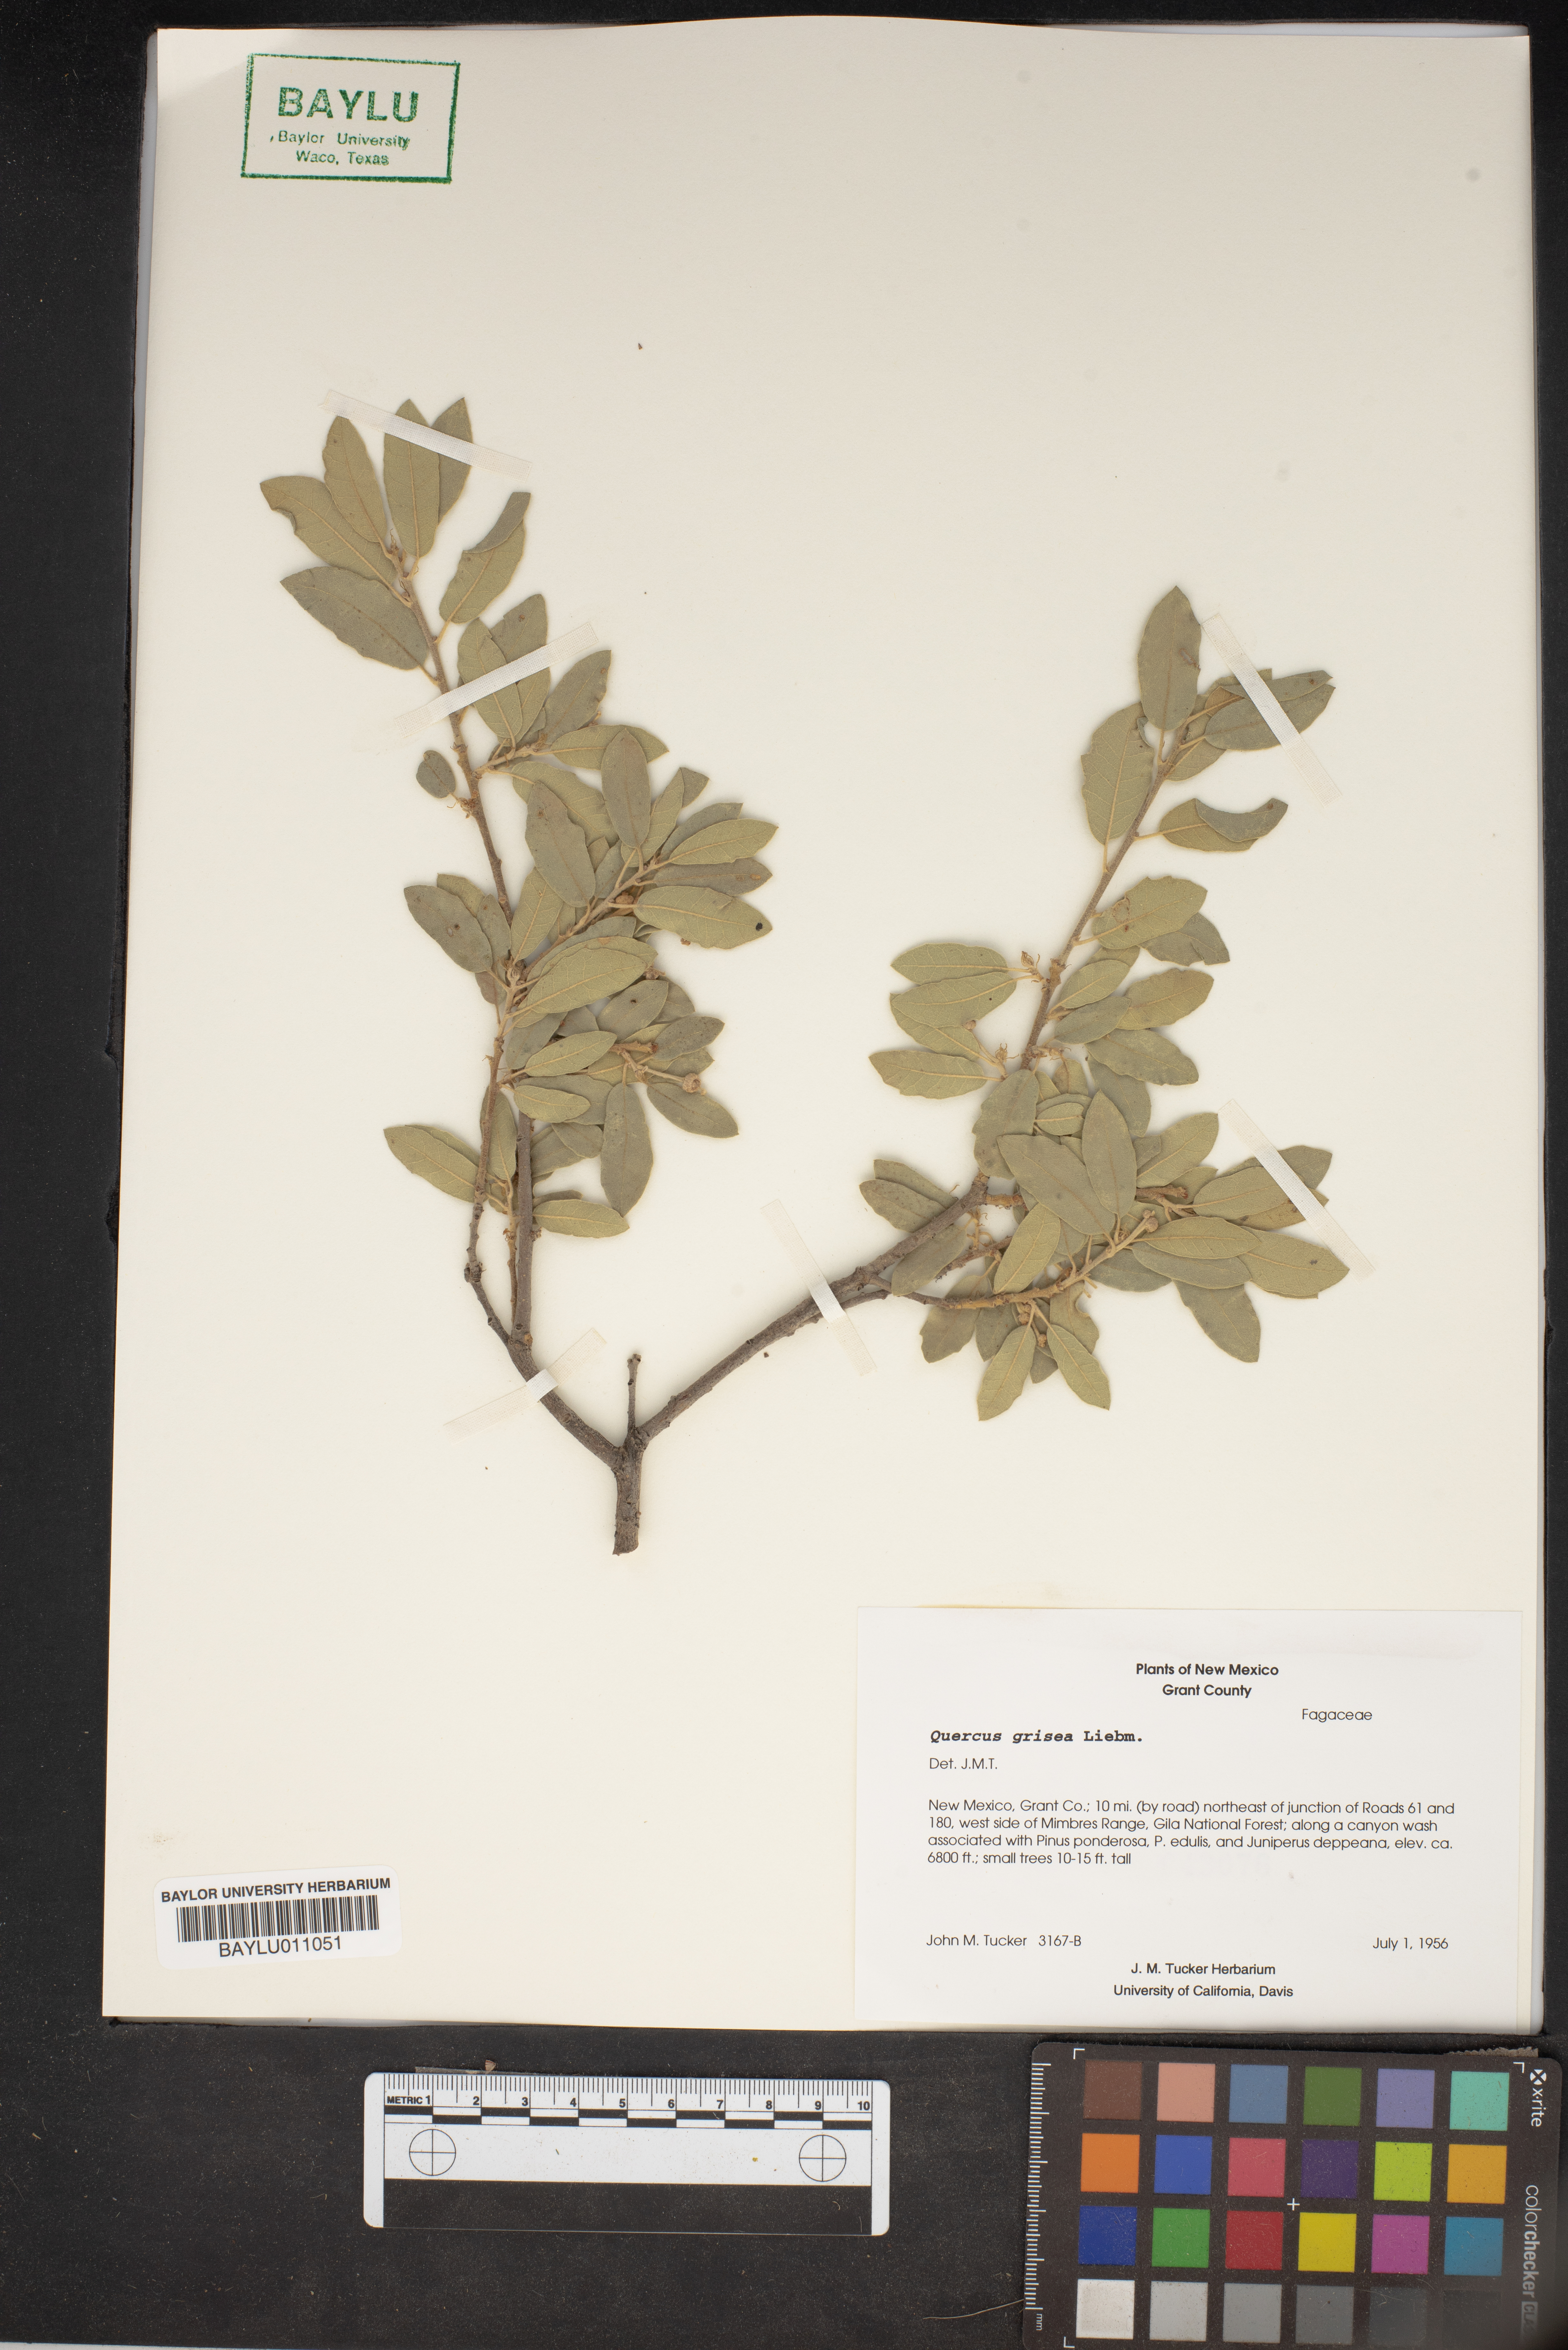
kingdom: Plantae
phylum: Tracheophyta
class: Magnoliopsida
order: Fagales
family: Fagaceae
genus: Quercus
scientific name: Quercus grisea
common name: Gray oak
